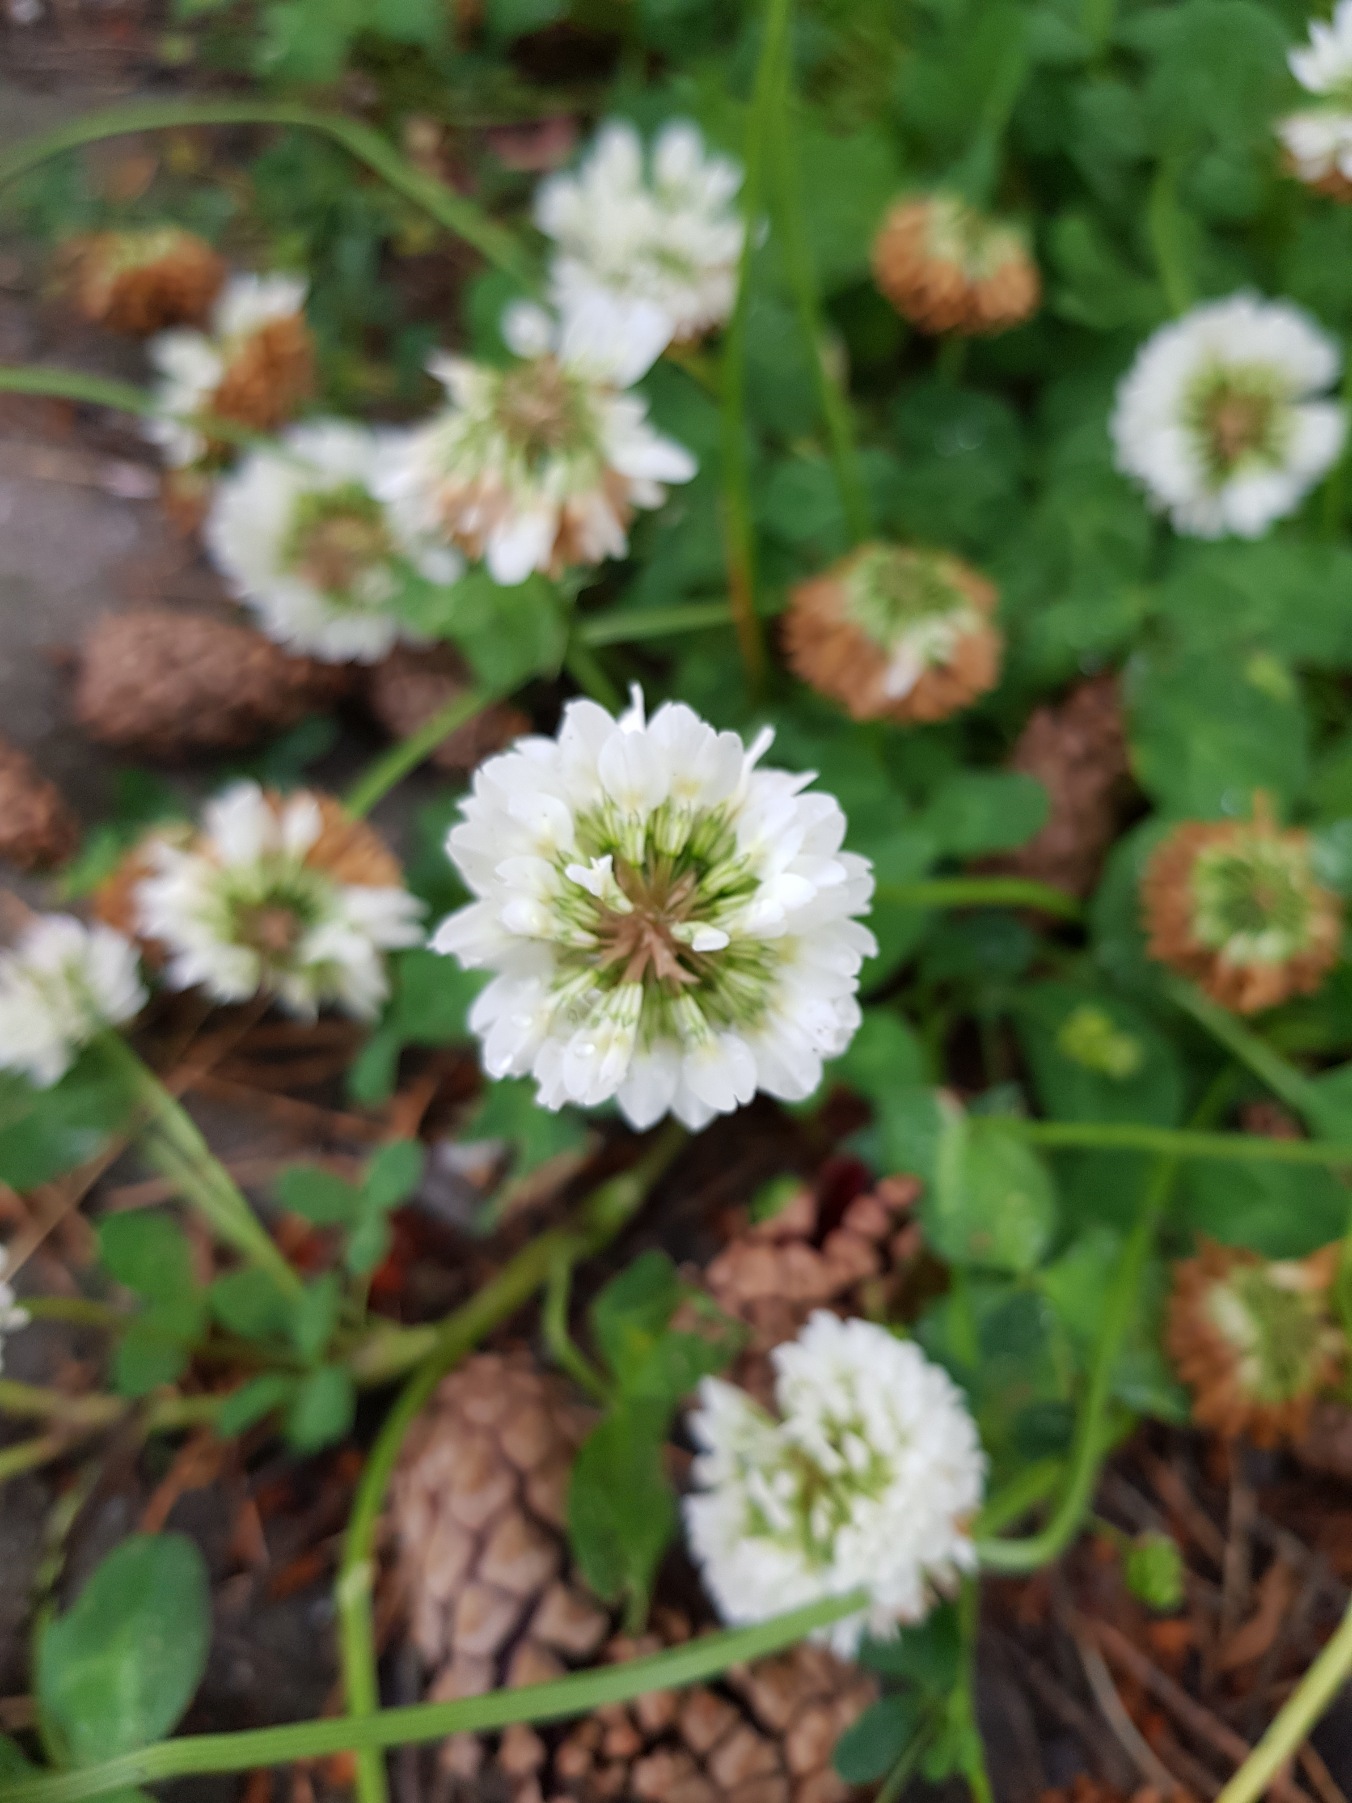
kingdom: Plantae
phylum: Tracheophyta
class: Magnoliopsida
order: Fabales
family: Fabaceae
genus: Trifolium
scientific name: Trifolium repens
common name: Hvid-kløver
